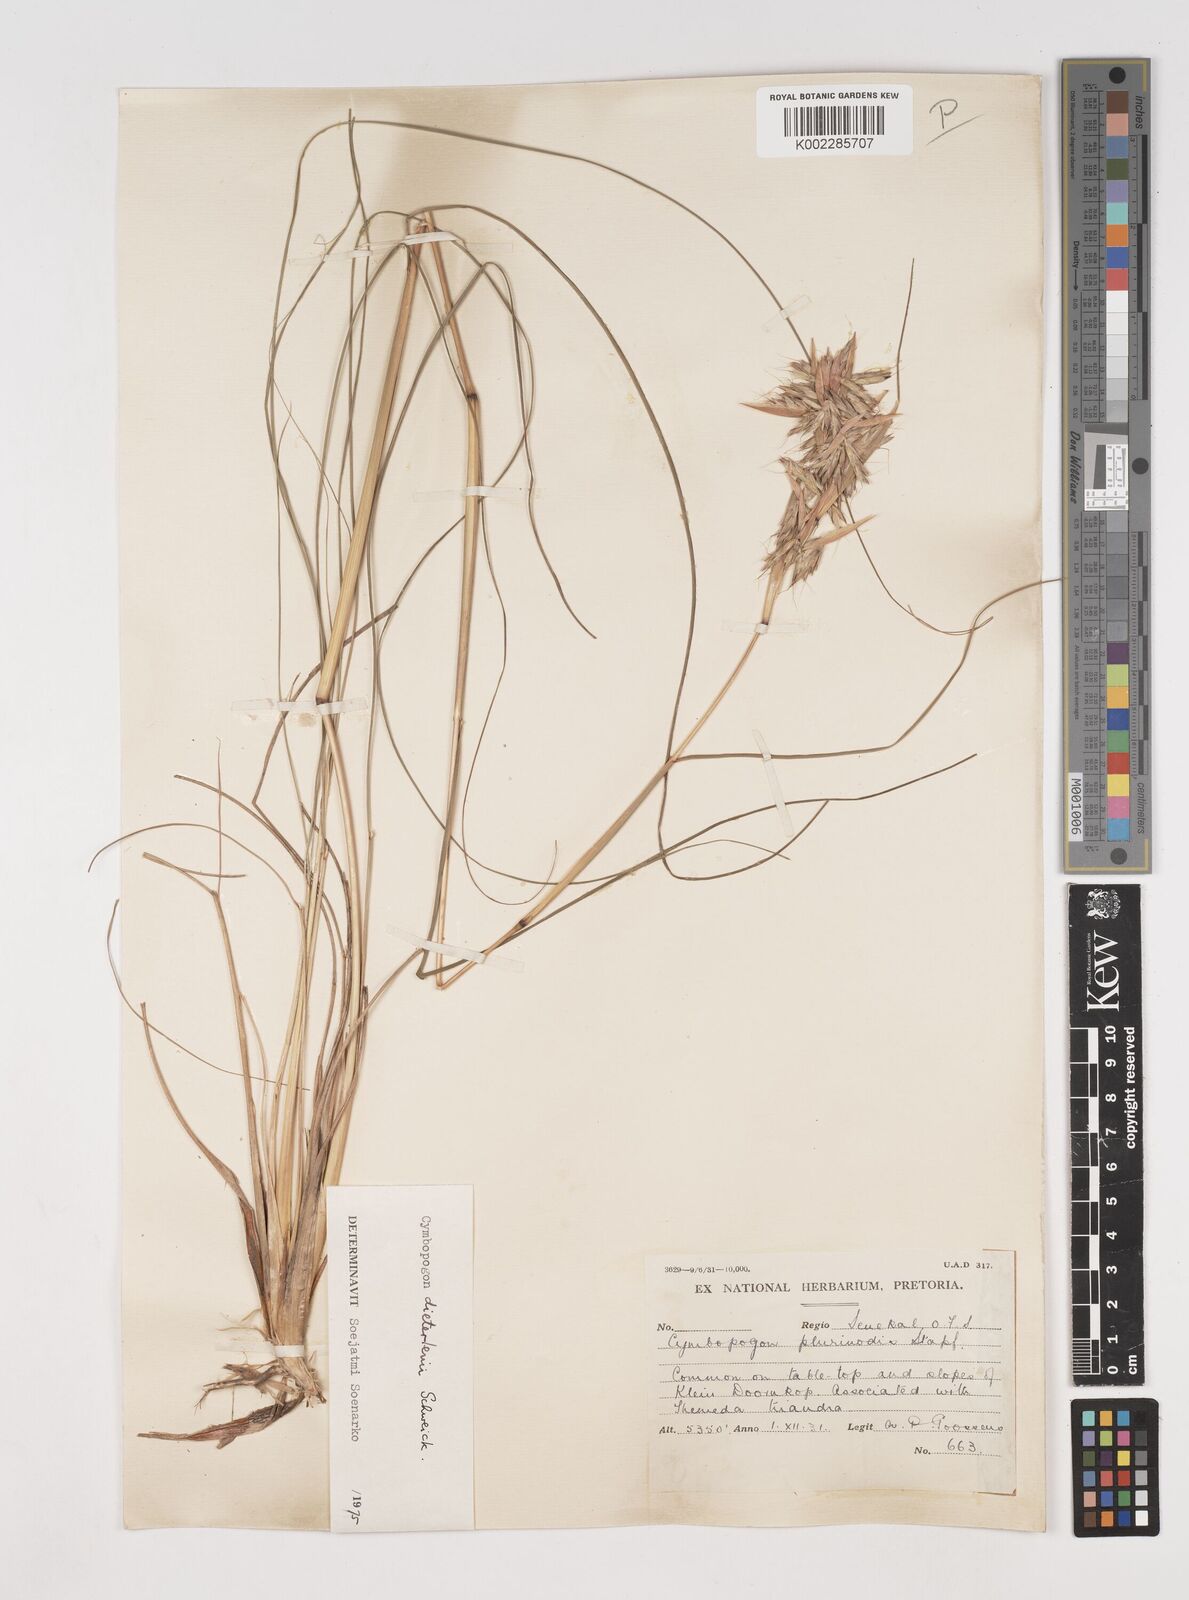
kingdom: Plantae
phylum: Tracheophyta
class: Liliopsida
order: Poales
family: Poaceae
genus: Cymbopogon
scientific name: Cymbopogon dieterlenii
